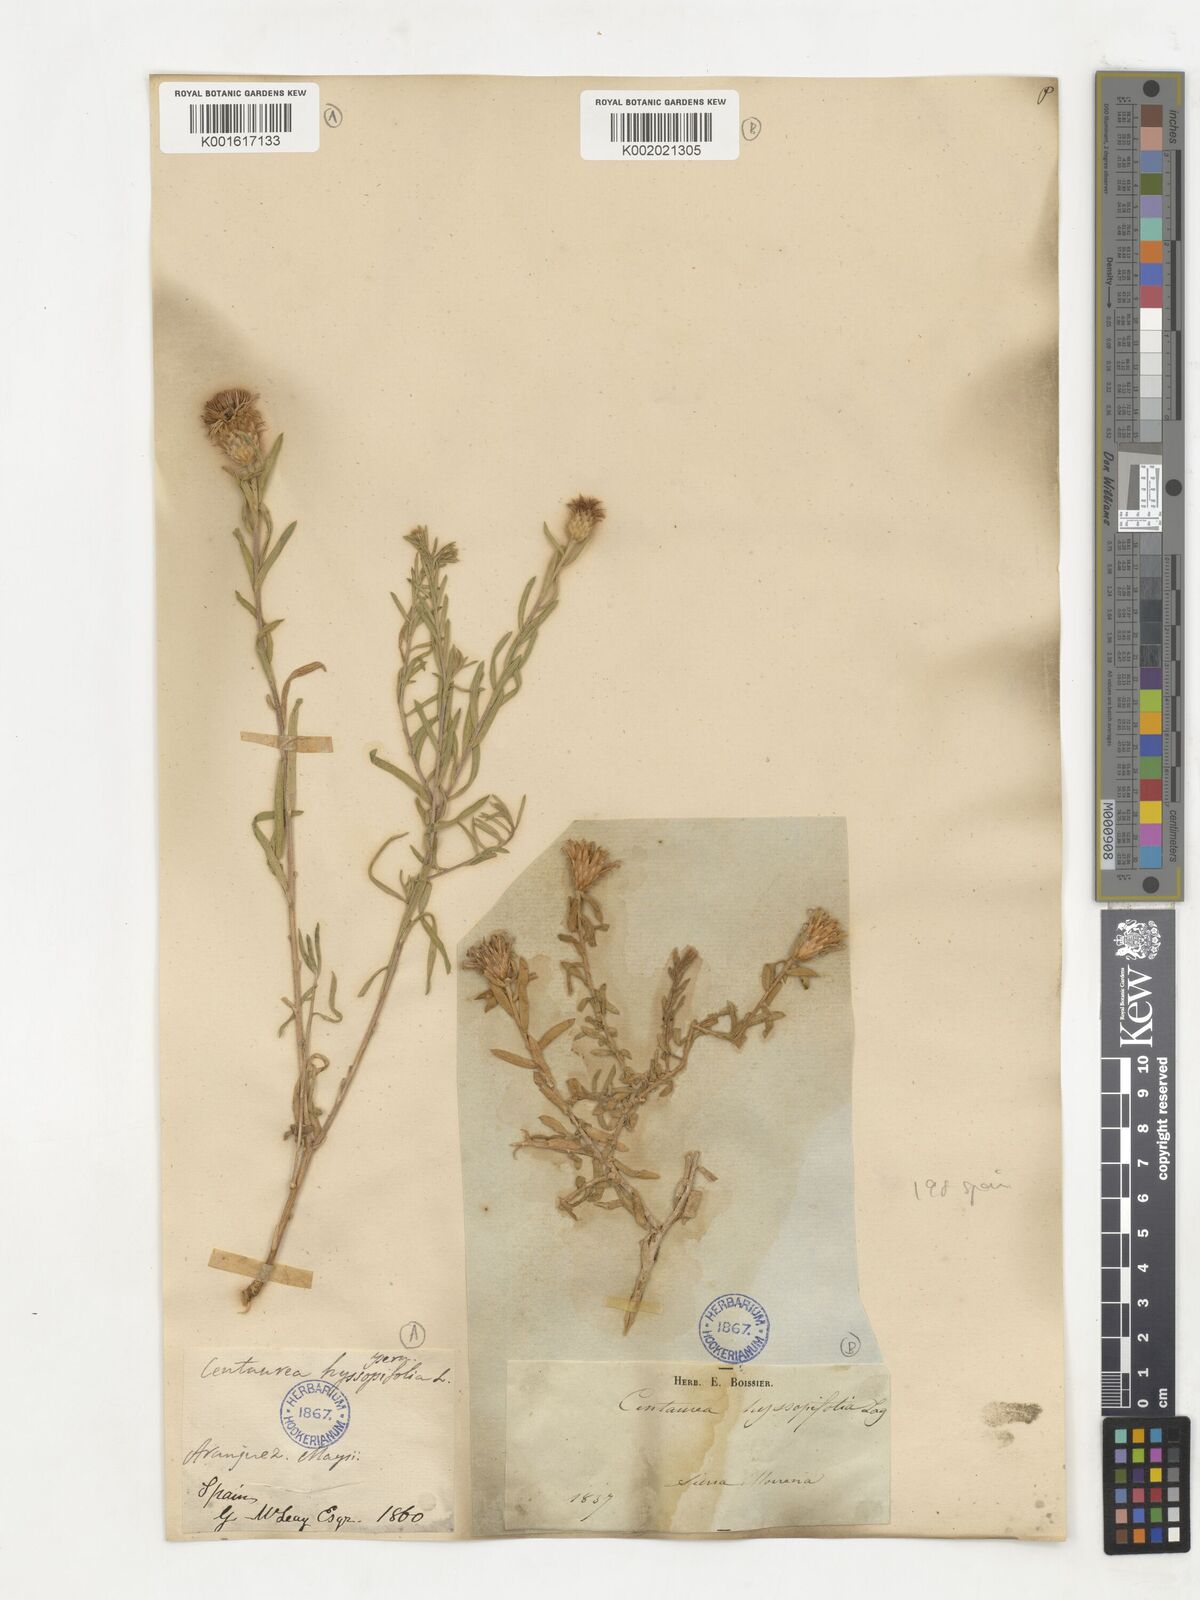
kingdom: Plantae
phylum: Tracheophyta
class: Magnoliopsida
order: Asterales
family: Asteraceae
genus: Centaurea
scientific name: Centaurea hyssopifolia
